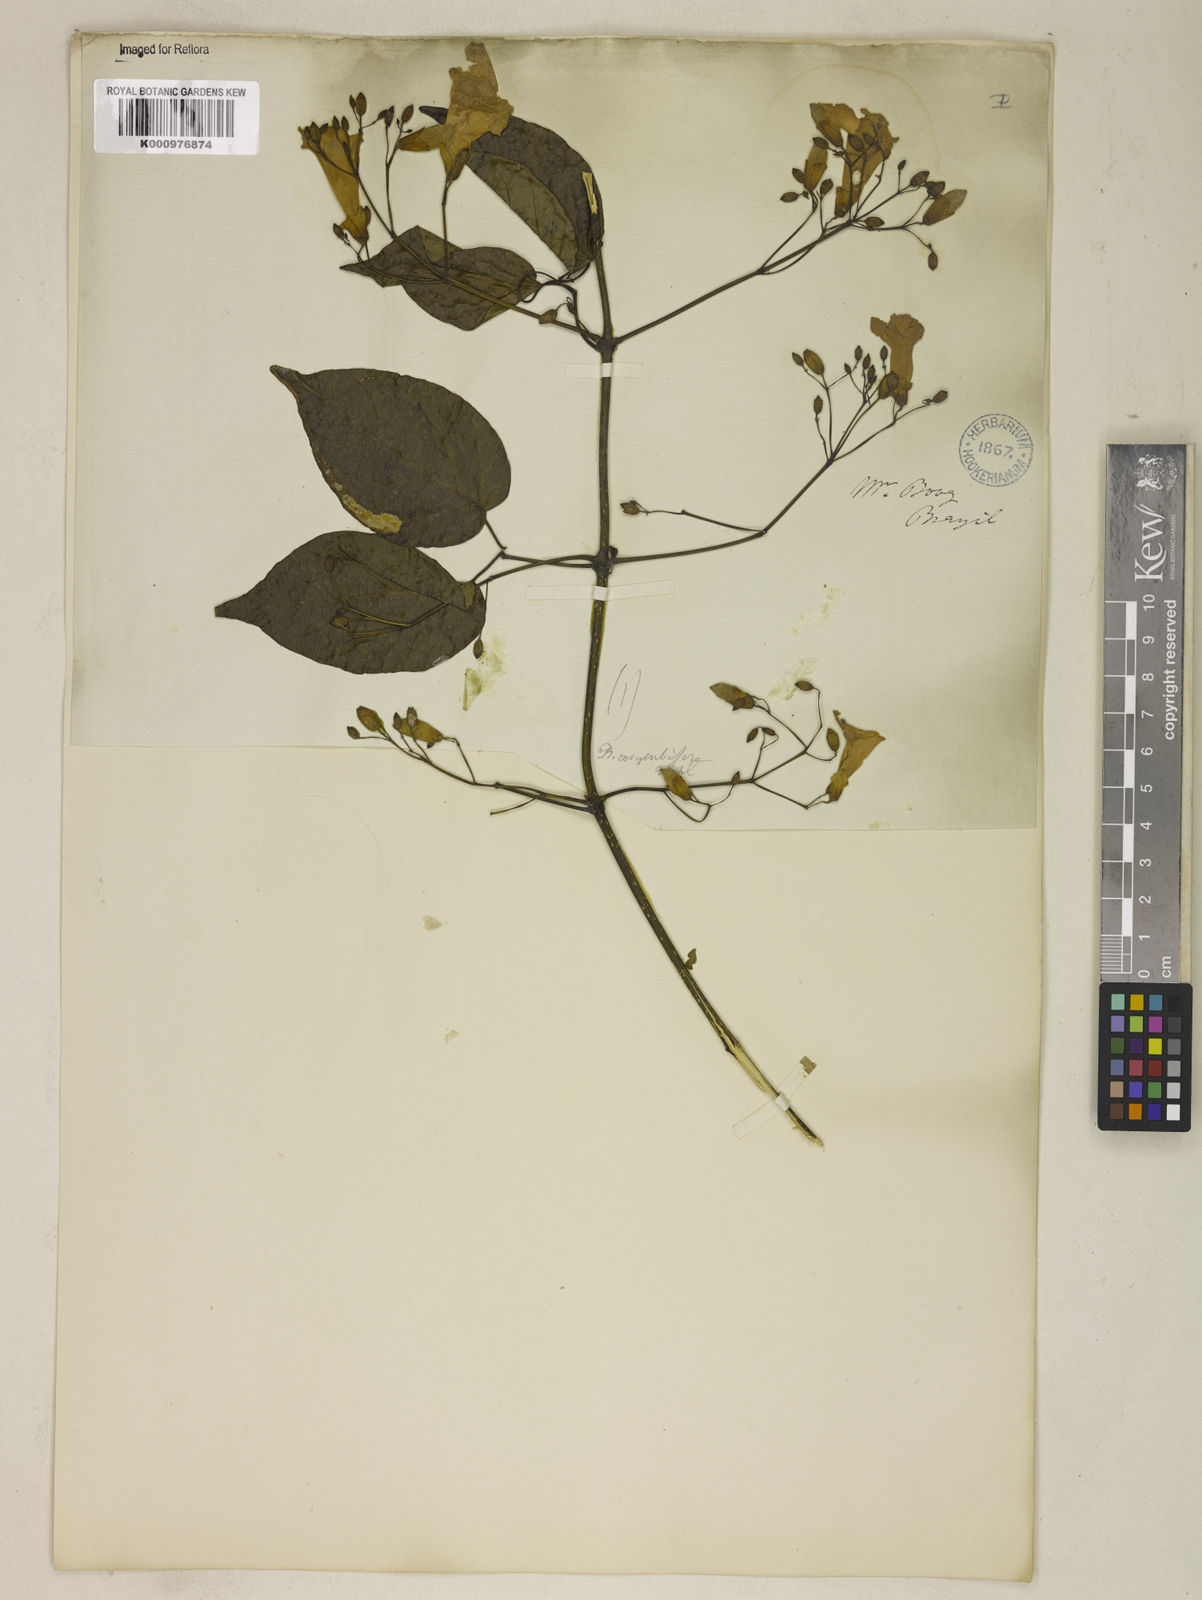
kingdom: Plantae
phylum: Tracheophyta
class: Magnoliopsida
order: Lamiales
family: Bignoniaceae
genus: Tanaecium
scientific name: Tanaecium selloi
